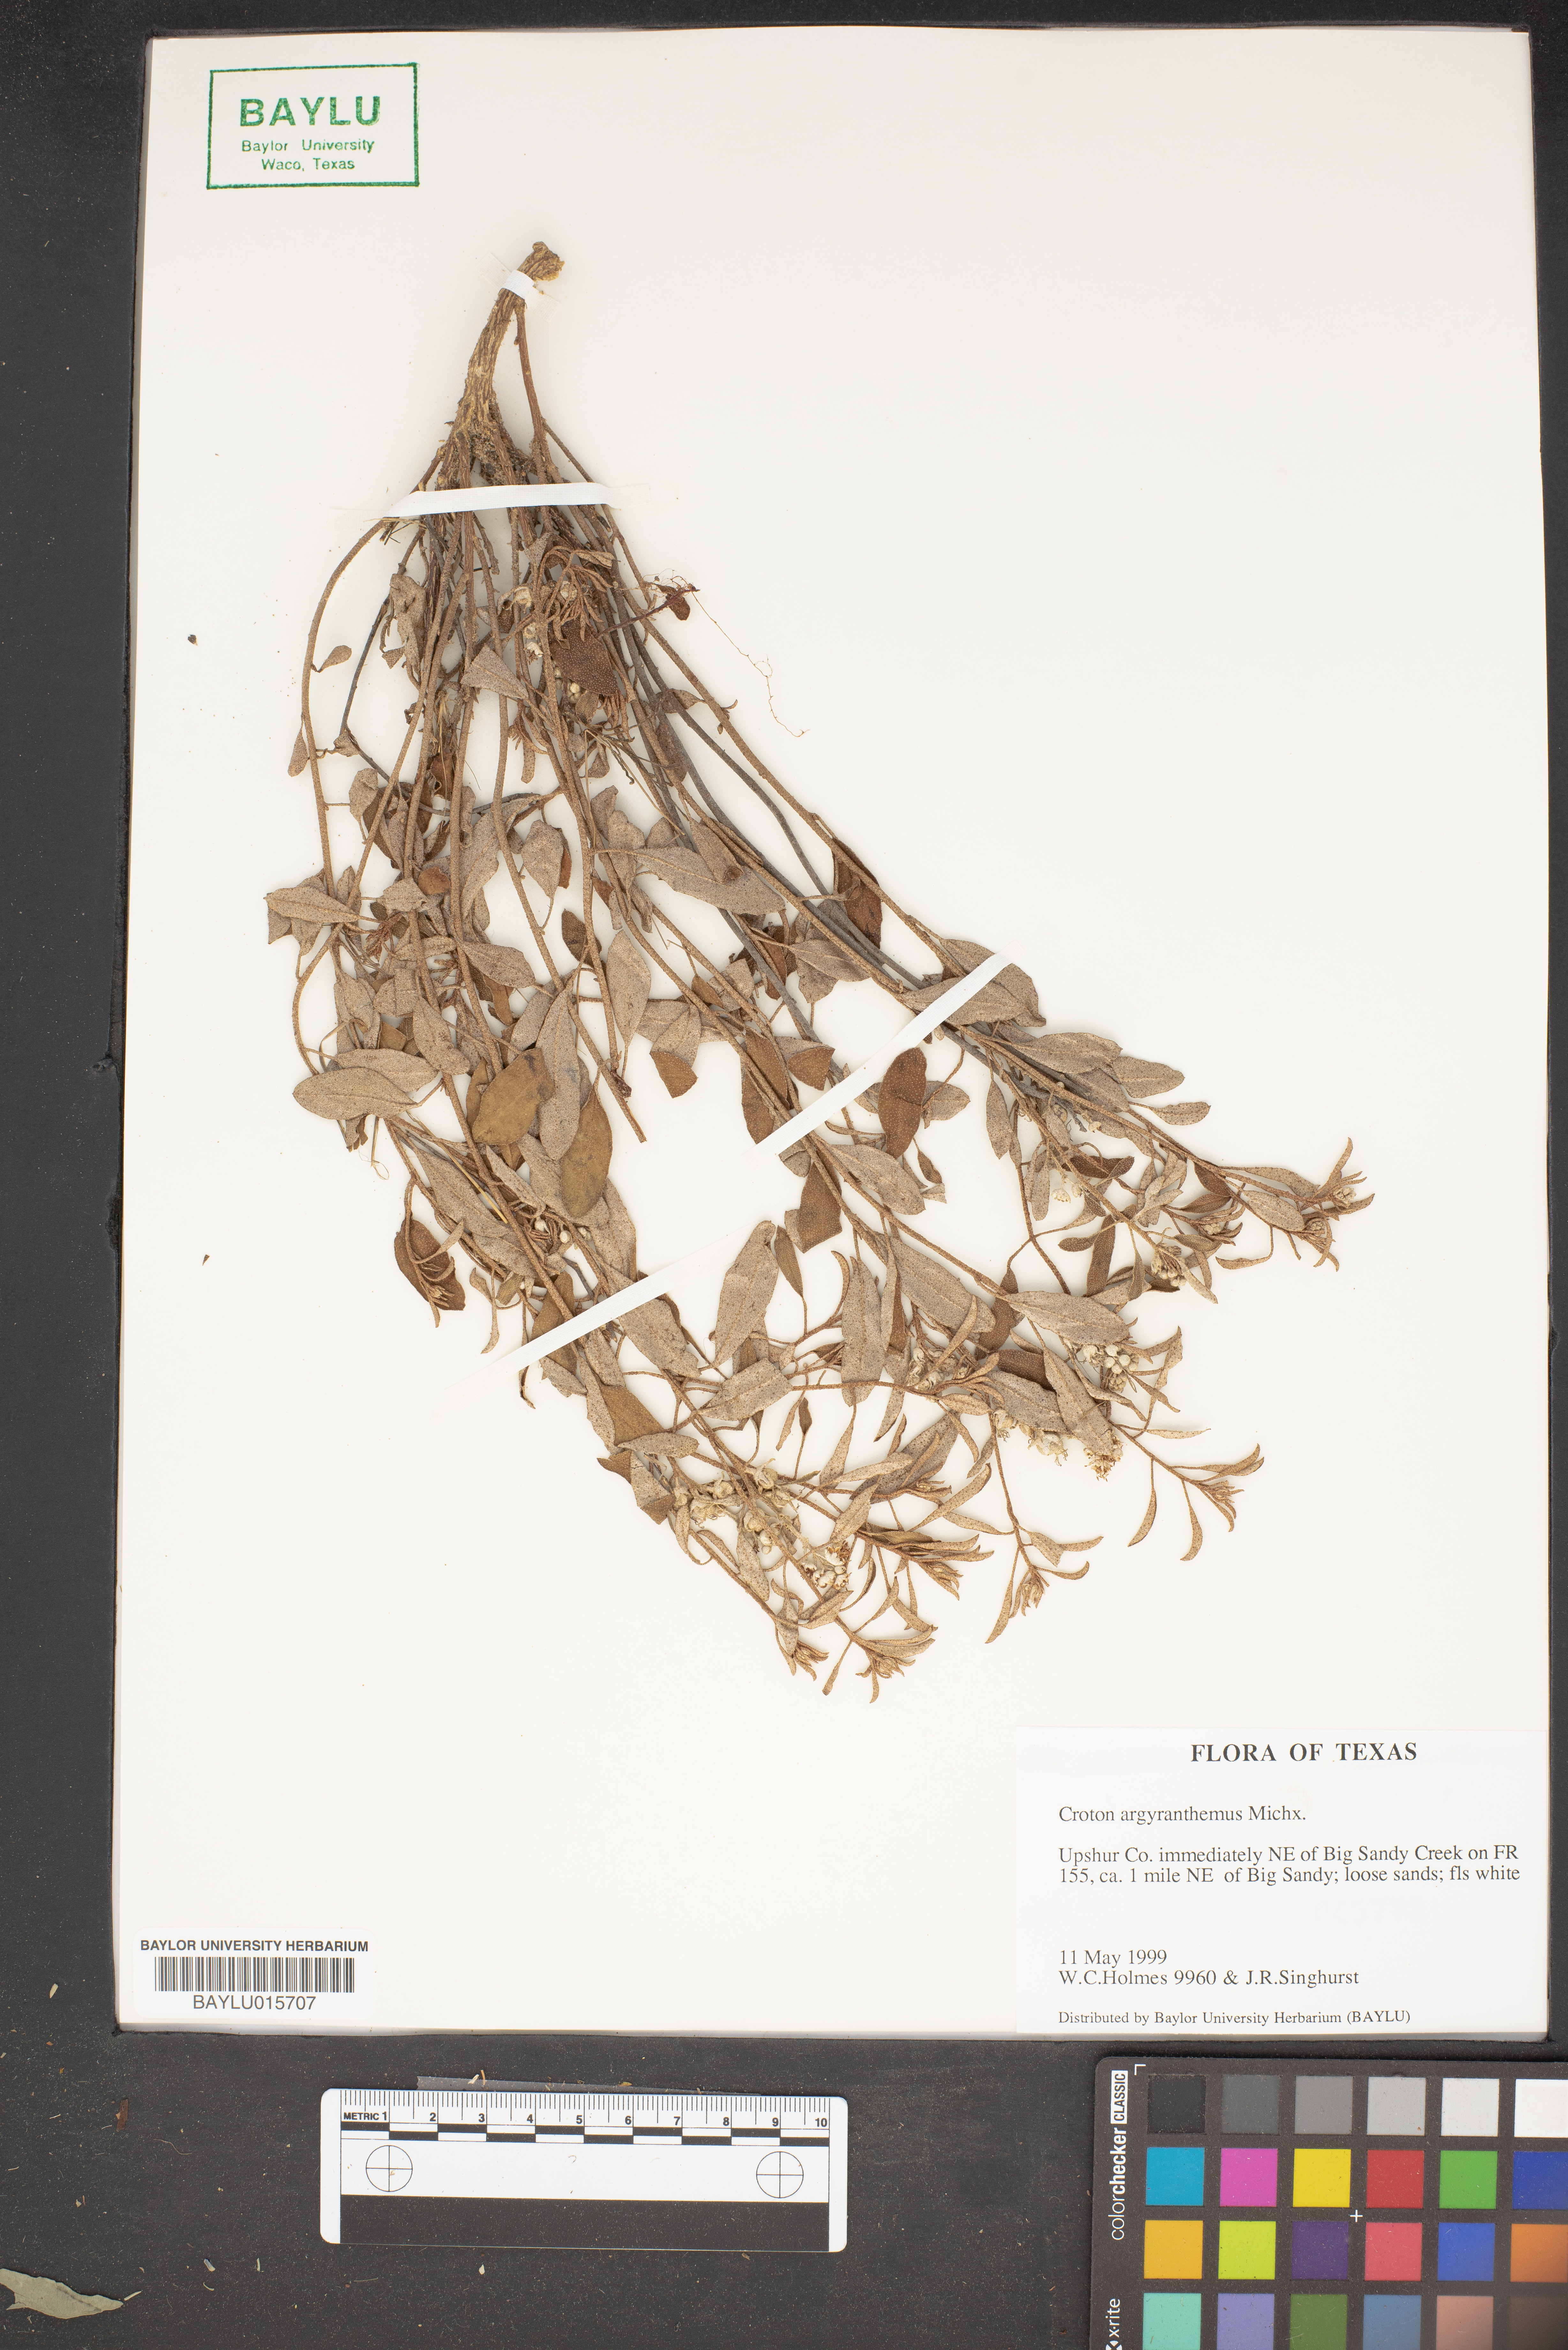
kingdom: Plantae
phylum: Tracheophyta
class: Magnoliopsida
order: Malpighiales
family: Euphorbiaceae
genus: Croton
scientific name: Croton argyranthemus
